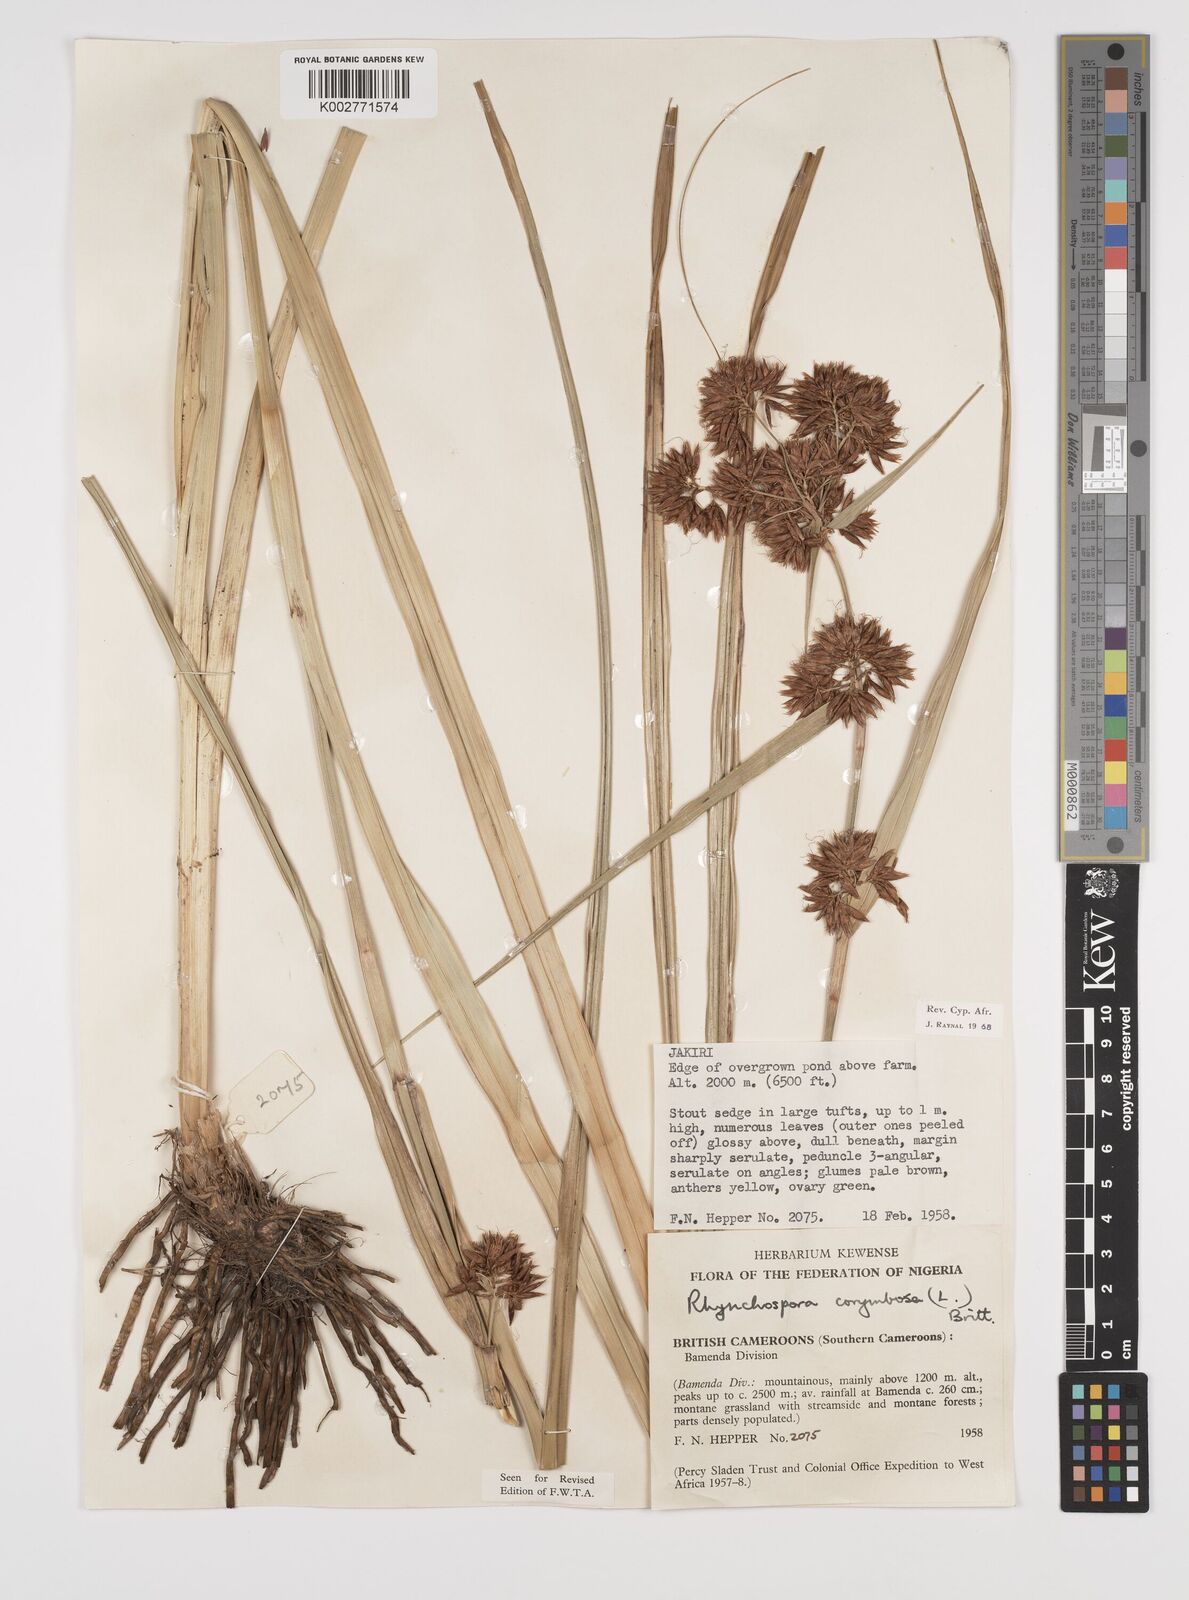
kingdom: Plantae
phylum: Tracheophyta
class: Liliopsida
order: Poales
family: Cyperaceae
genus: Rhynchospora
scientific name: Rhynchospora corymbosa
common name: Golden beak sedge
